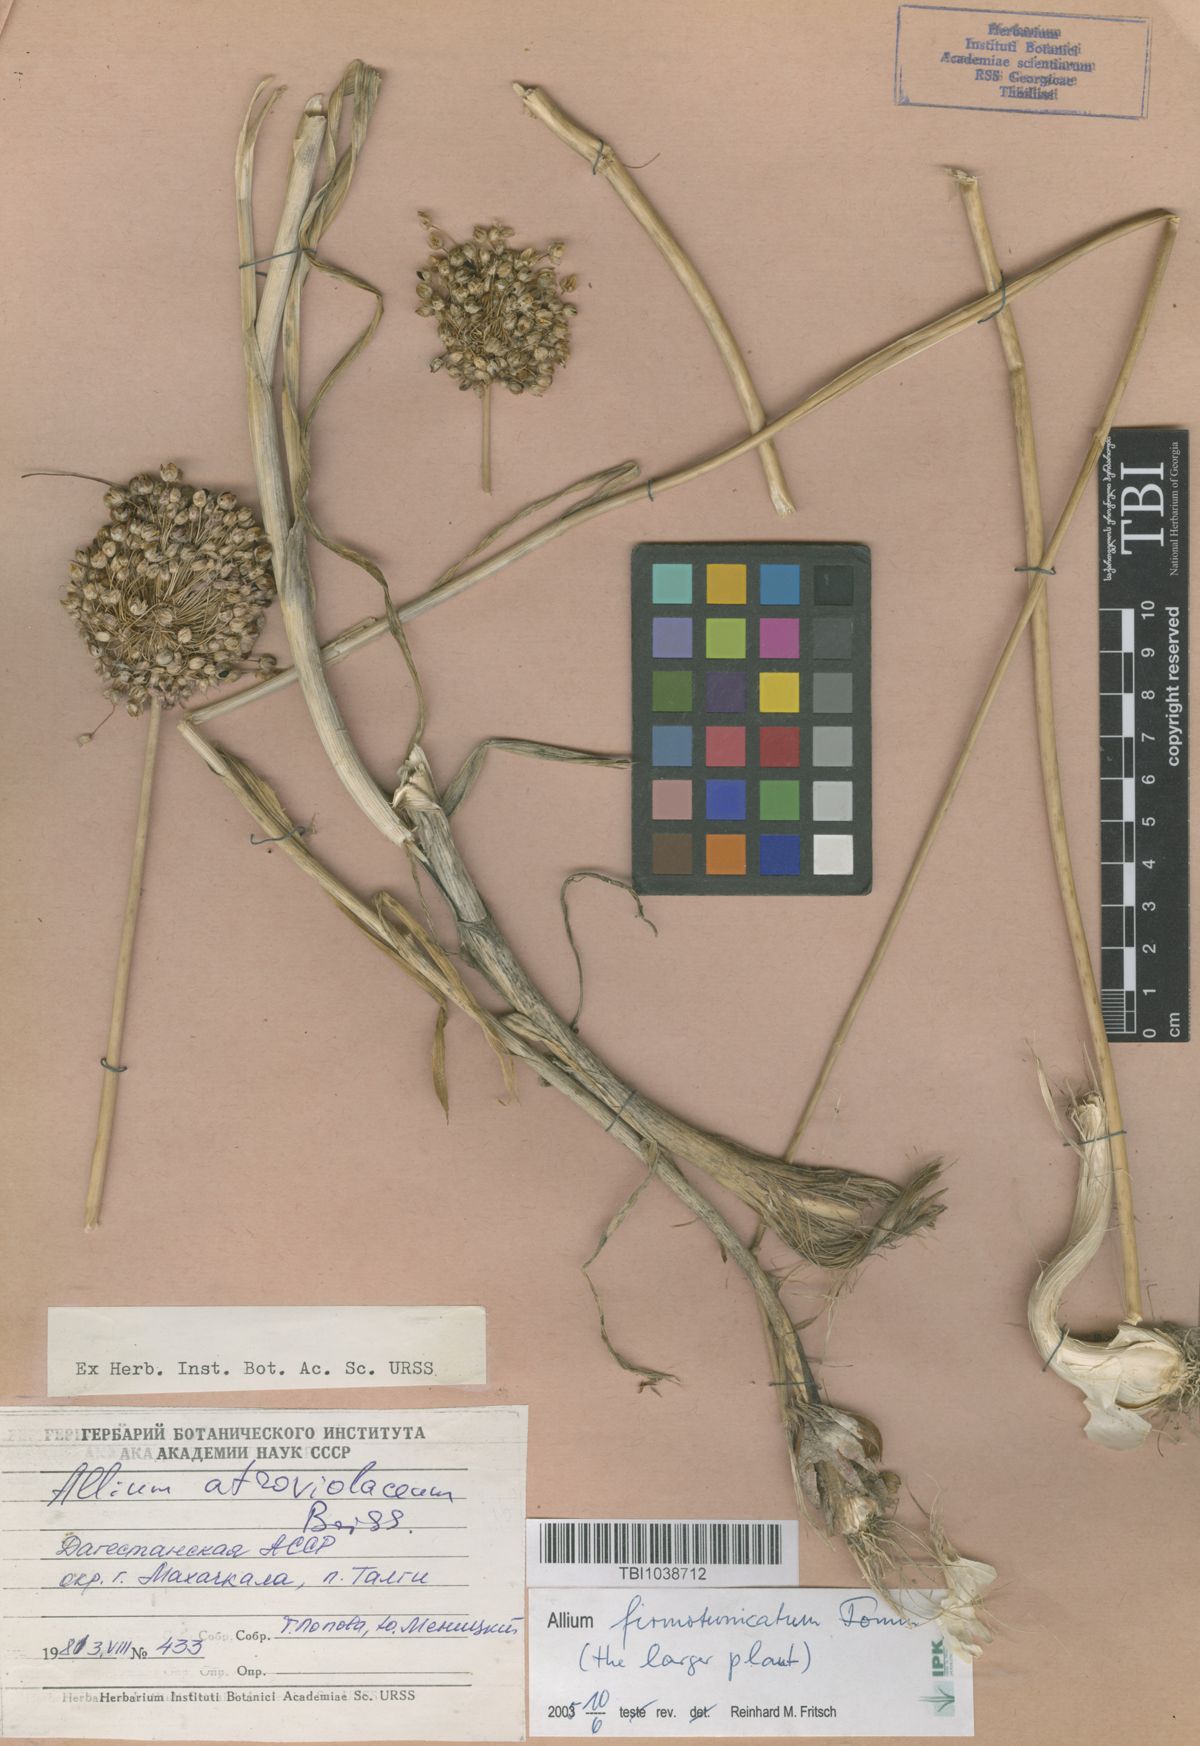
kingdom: Plantae
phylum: Tracheophyta
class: Liliopsida
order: Asparagales
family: Amaryllidaceae
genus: Allium
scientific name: Allium atroviolaceum
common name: Broadleaf wild leek
